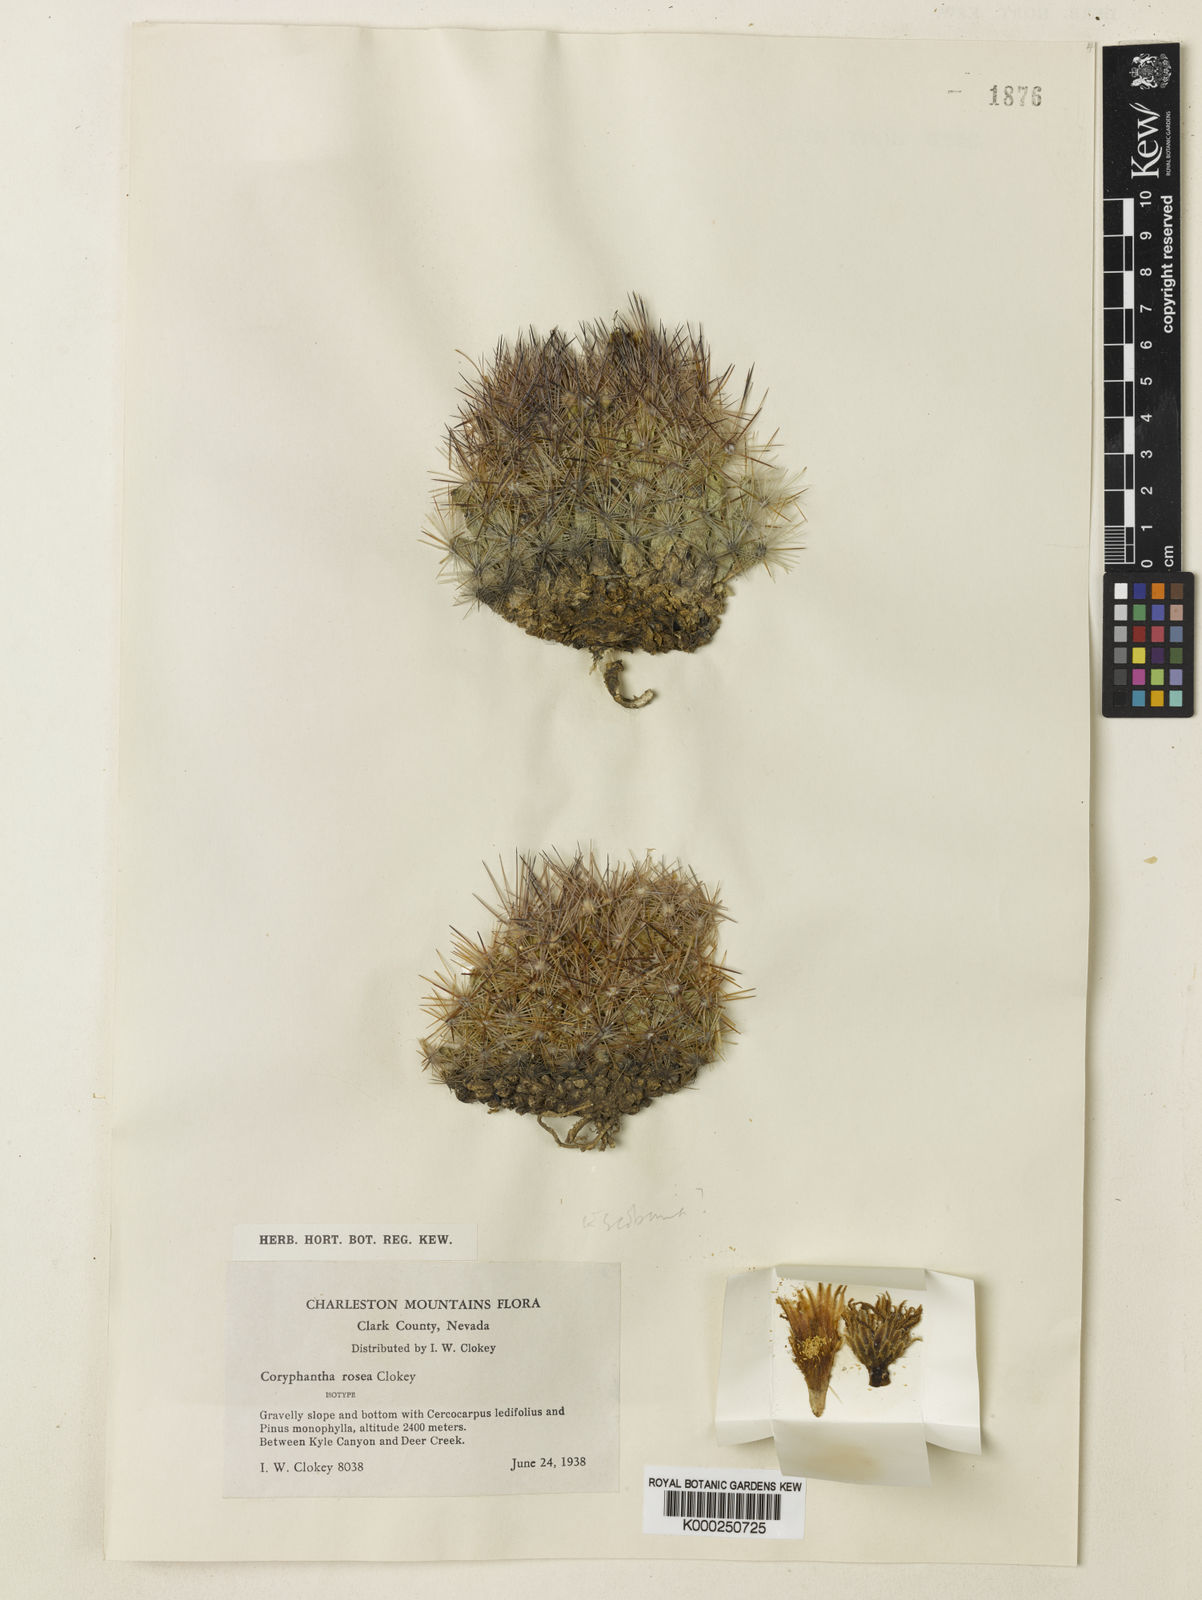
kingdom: Plantae
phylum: Tracheophyta
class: Magnoliopsida
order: Caryophyllales
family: Cactaceae
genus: Pelecyphora
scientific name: Pelecyphora vivipara
